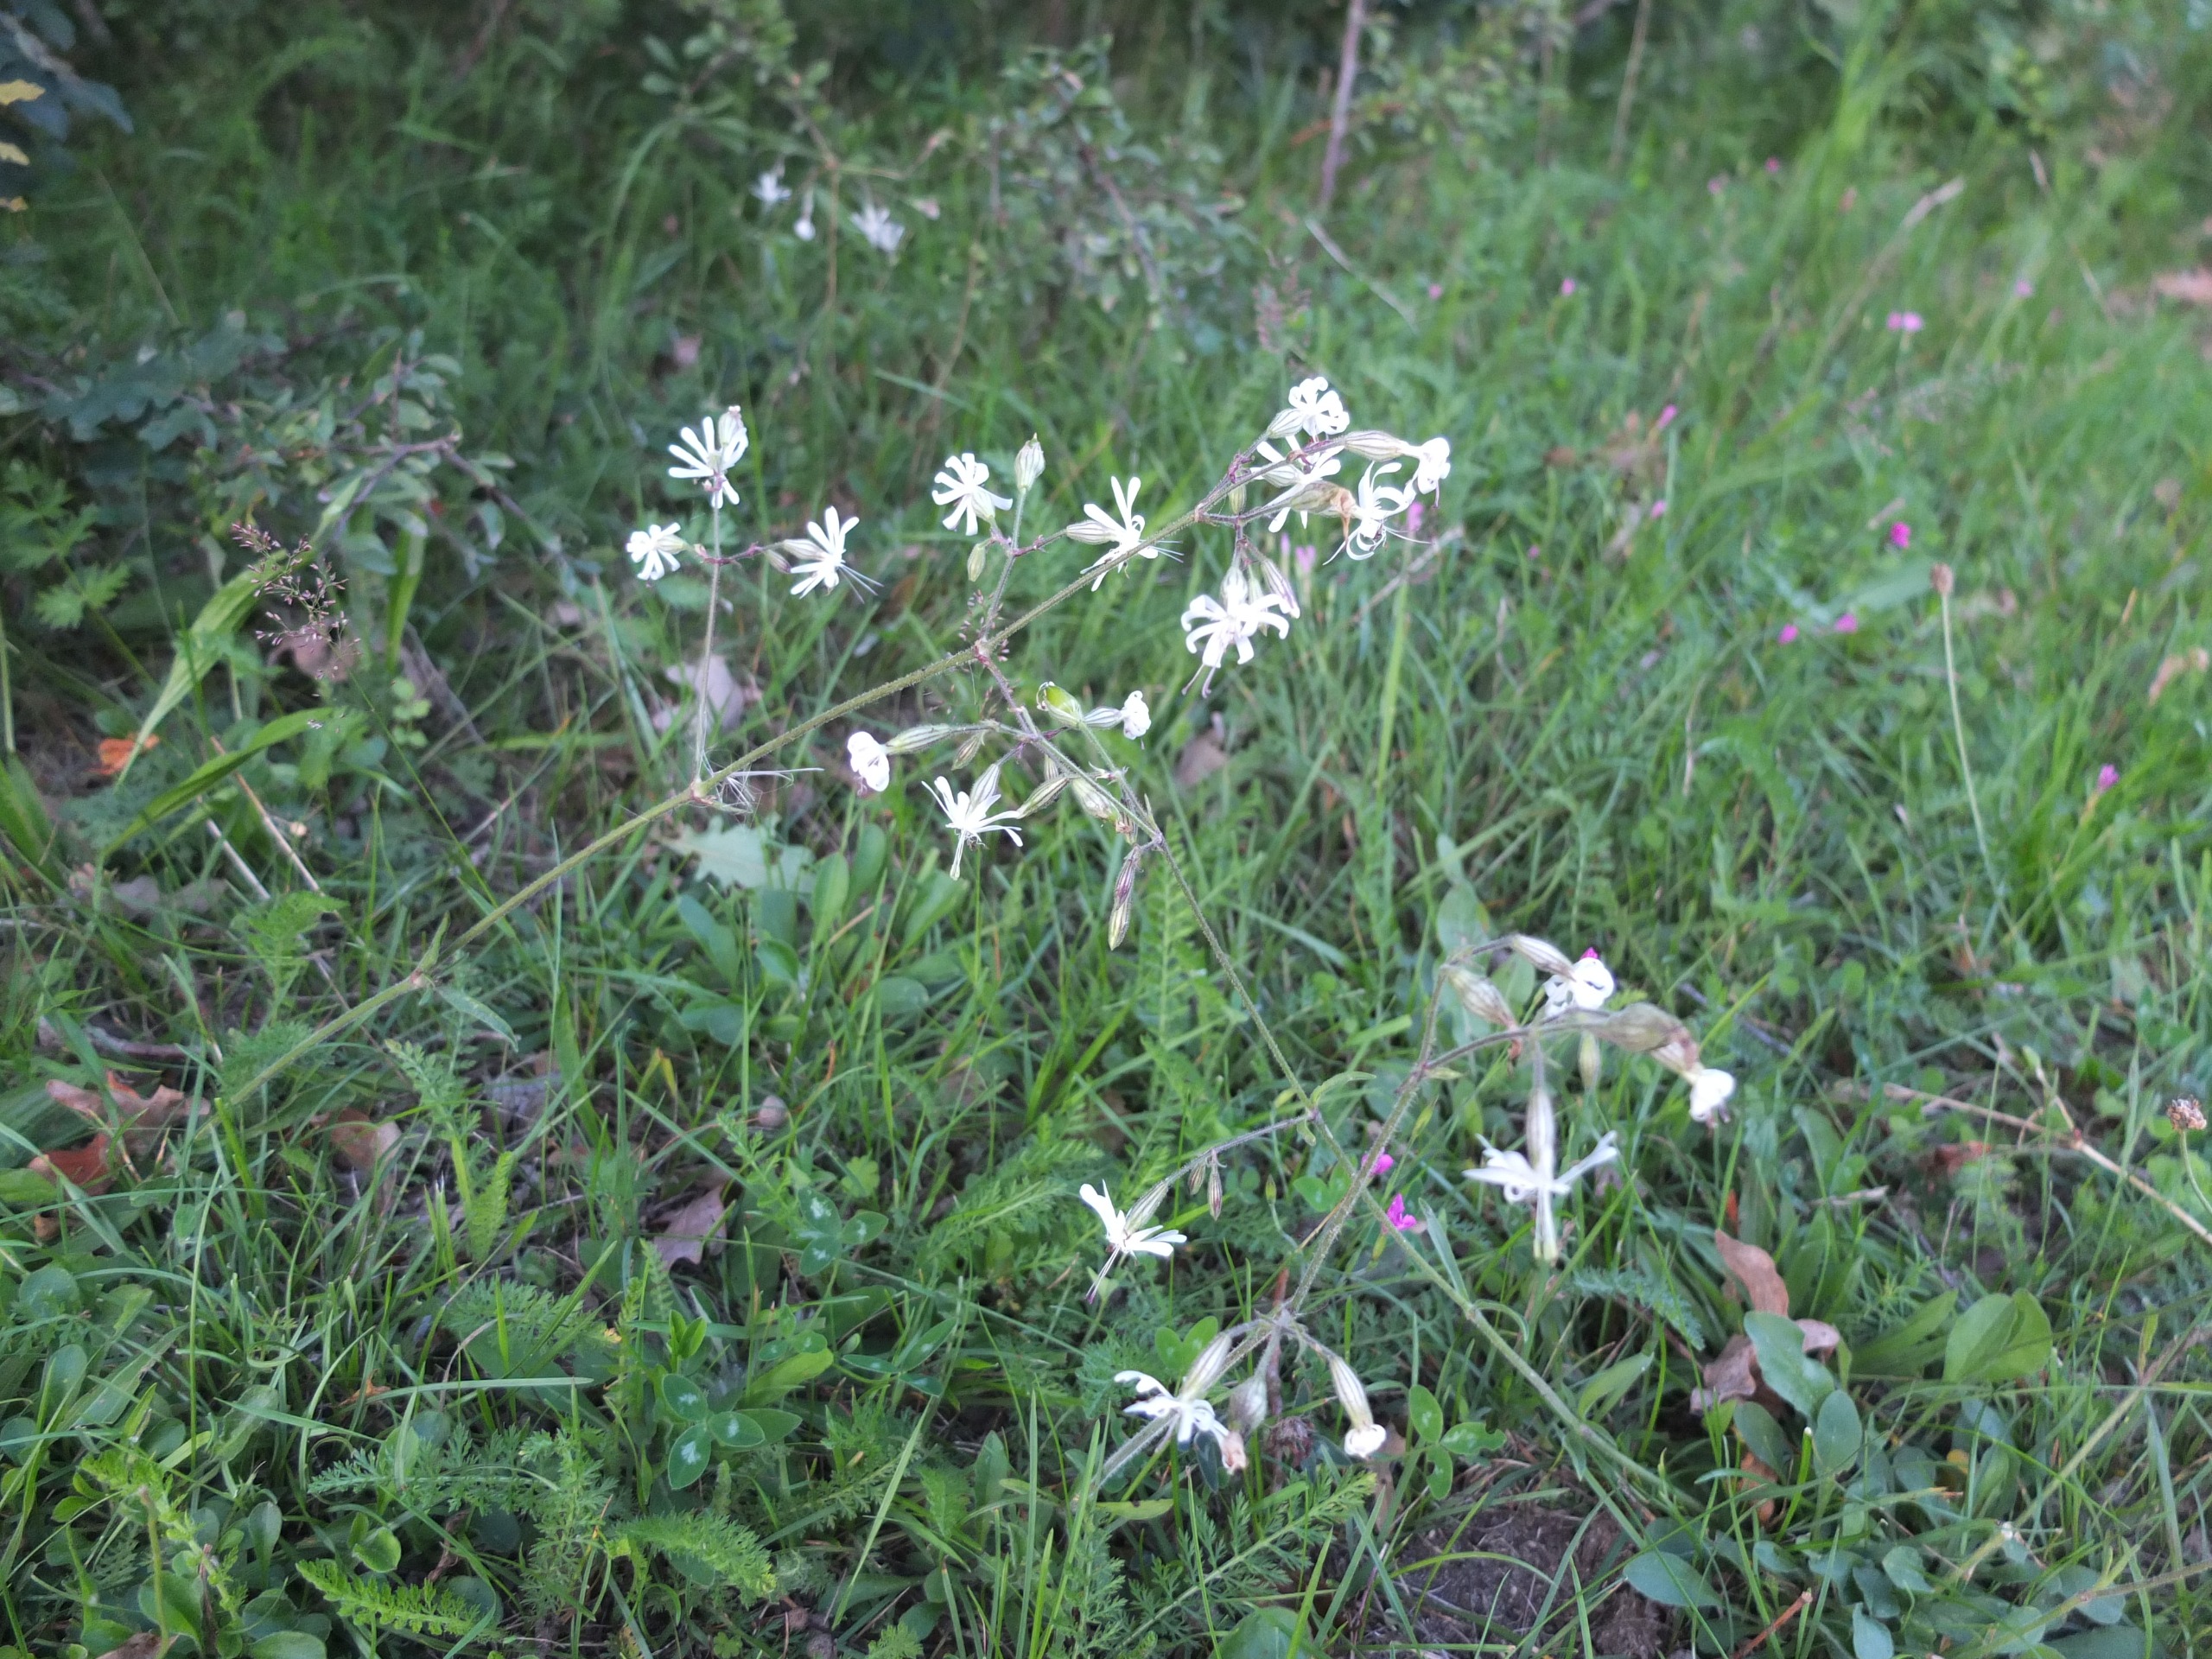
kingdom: Plantae
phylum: Tracheophyta
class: Magnoliopsida
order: Caryophyllales
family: Caryophyllaceae
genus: Silene
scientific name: Silene nutans
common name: Nikkende limurt
